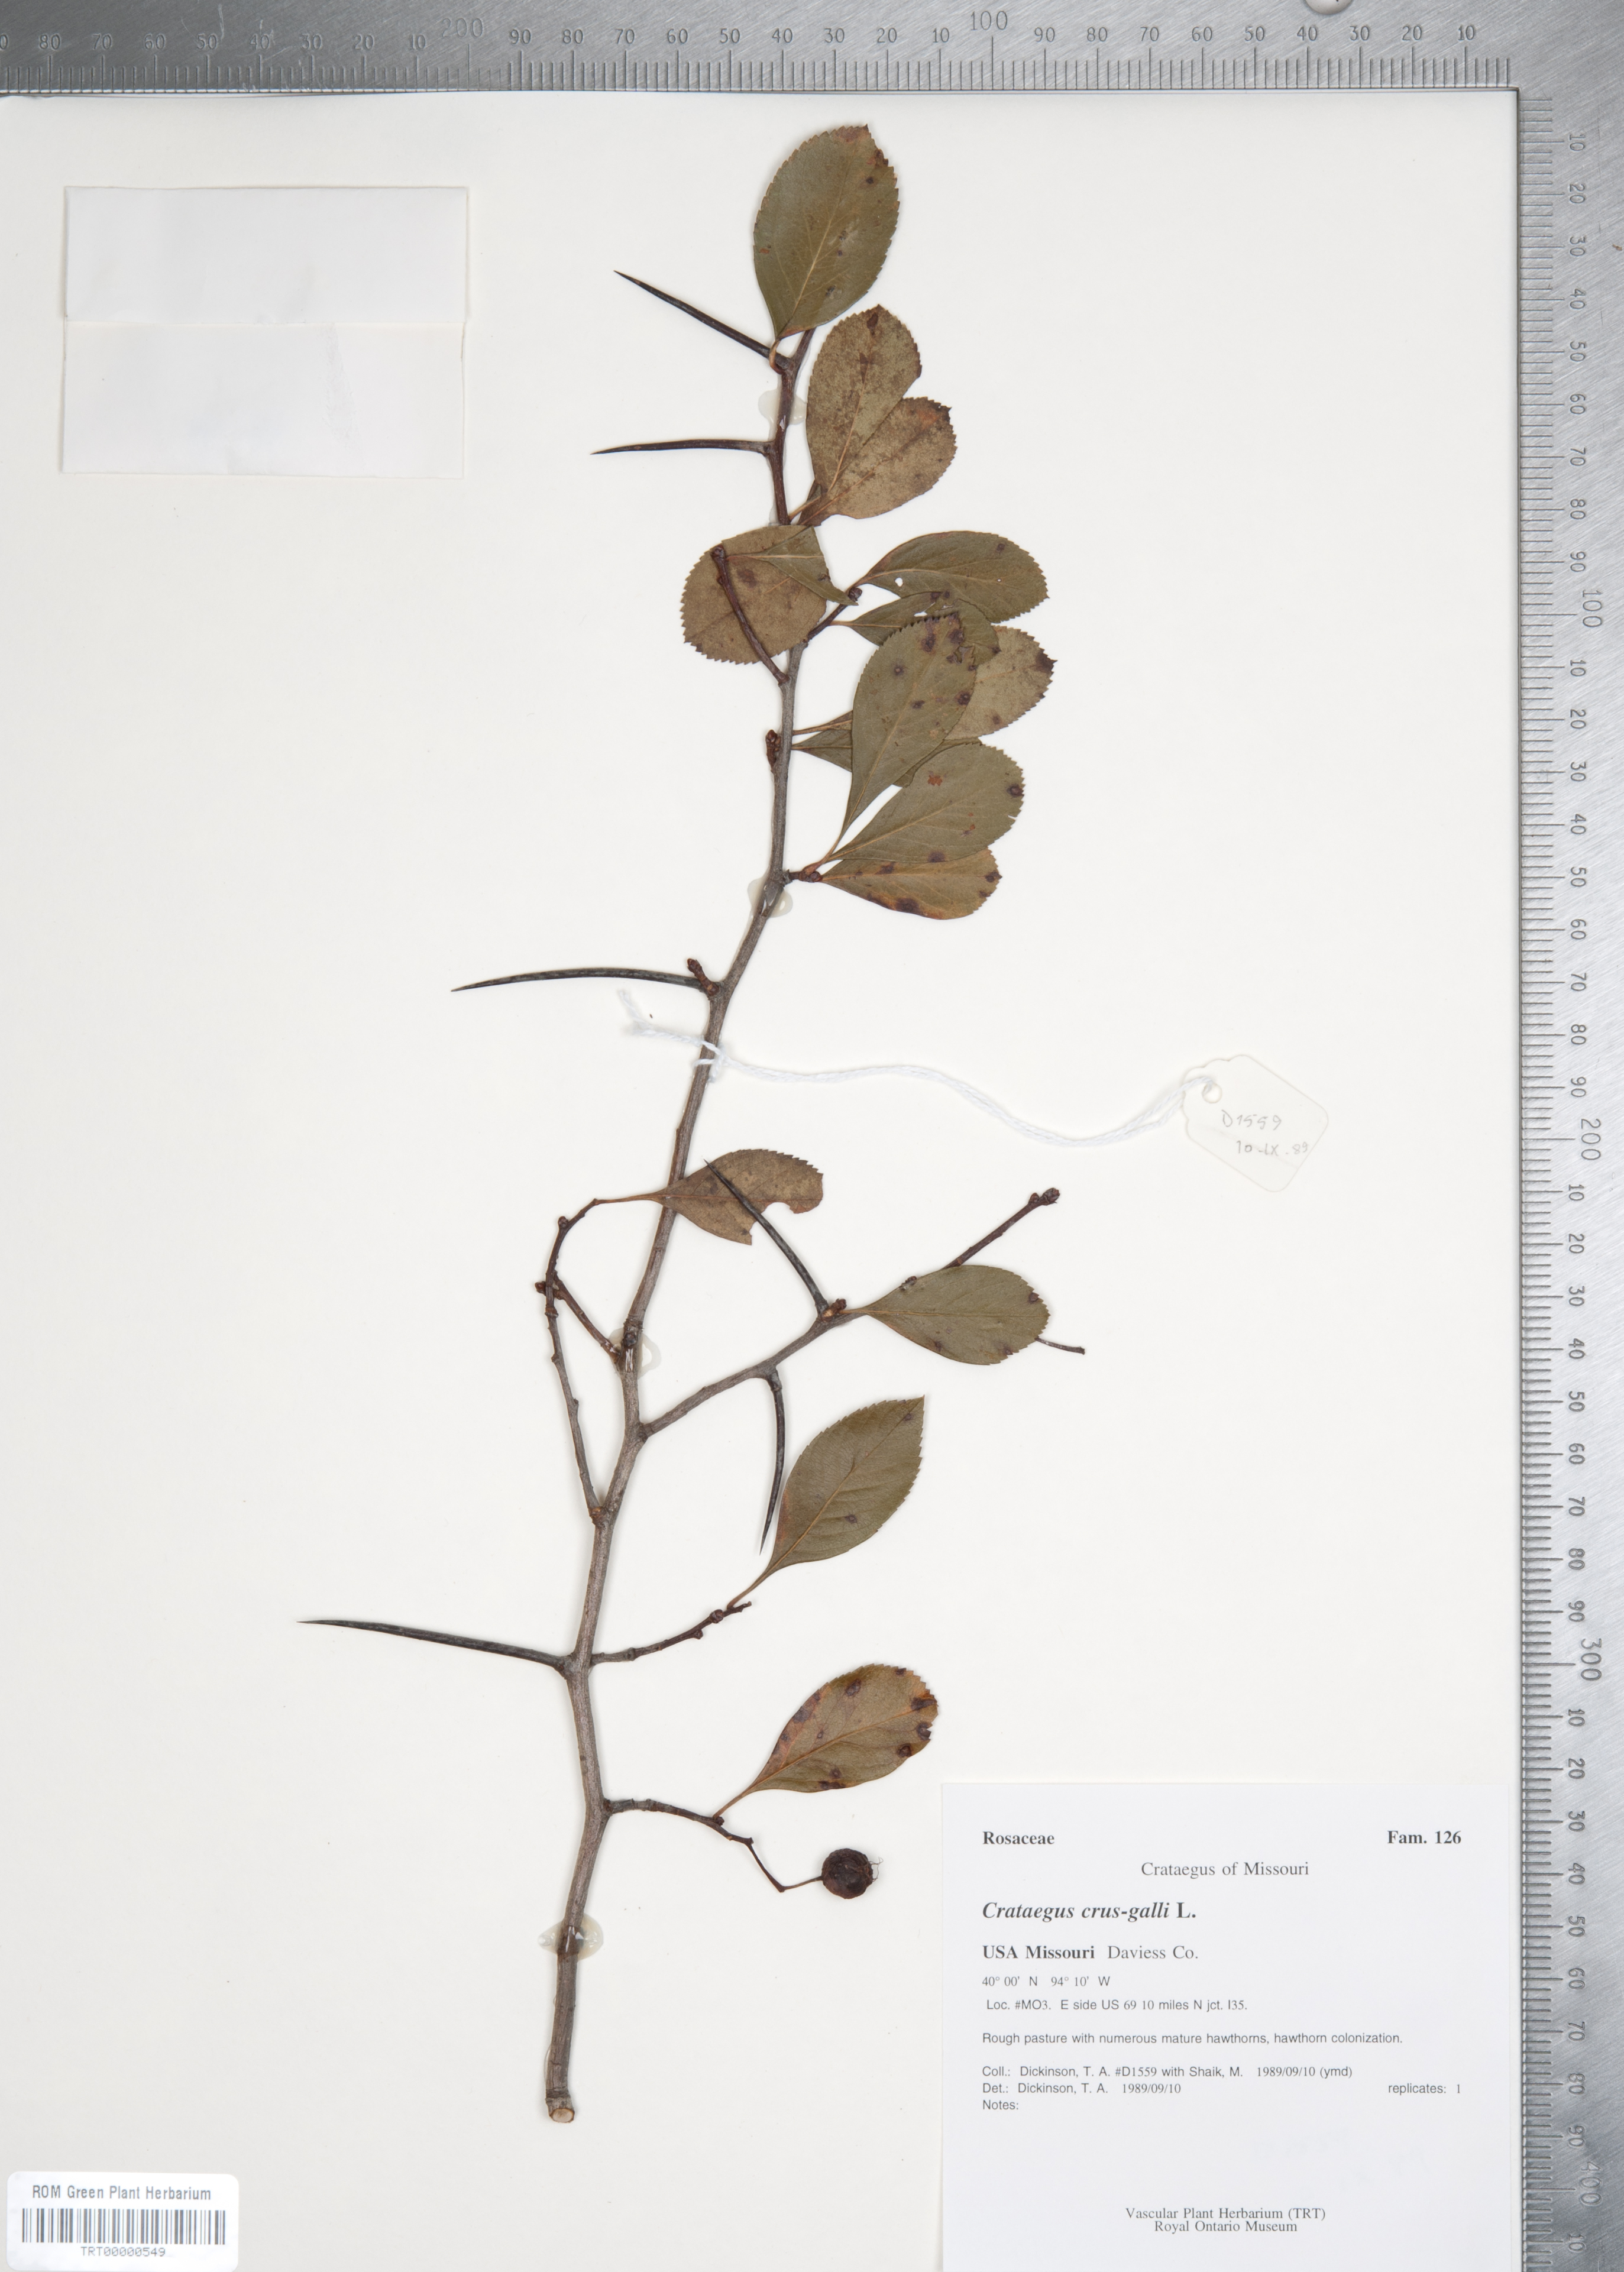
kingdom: Plantae
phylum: Tracheophyta
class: Magnoliopsida
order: Rosales
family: Rosaceae
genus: Crataegus
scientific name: Crataegus crus-galli
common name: Cockspurthorn
